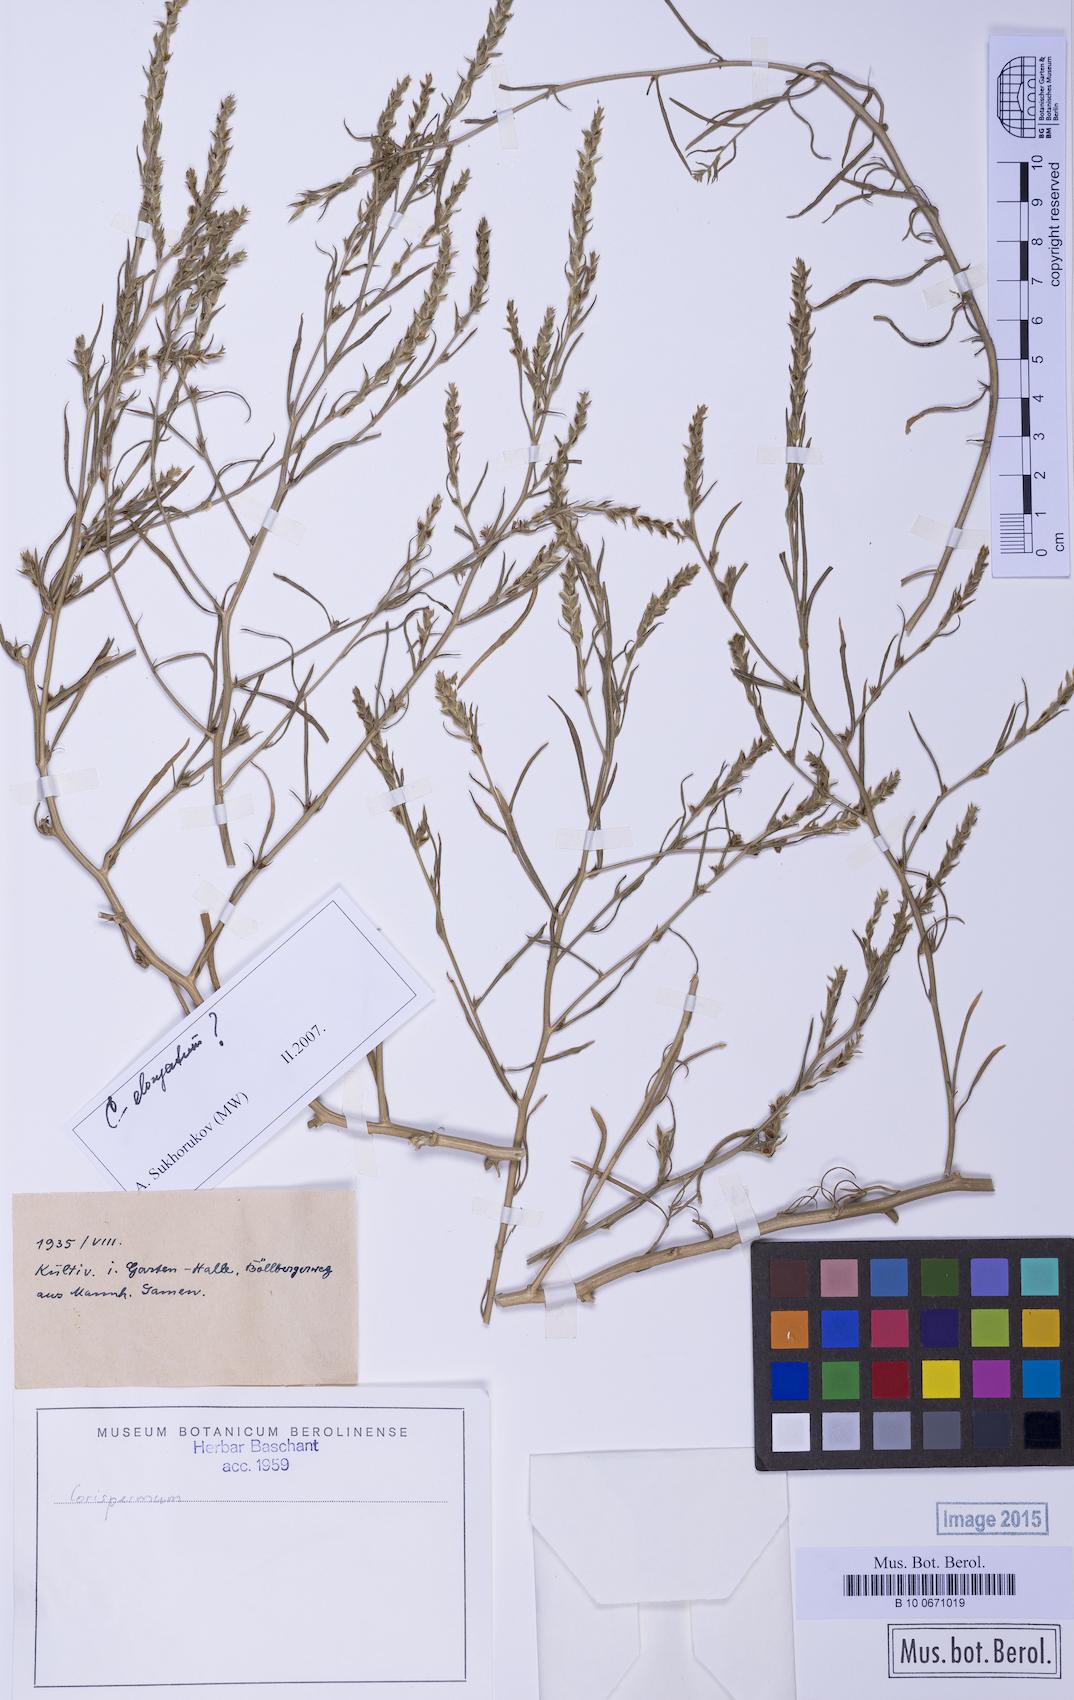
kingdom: Plantae
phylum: Tracheophyta
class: Magnoliopsida
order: Caryophyllales
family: Amaranthaceae
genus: Corispermum
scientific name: Corispermum elongatum
